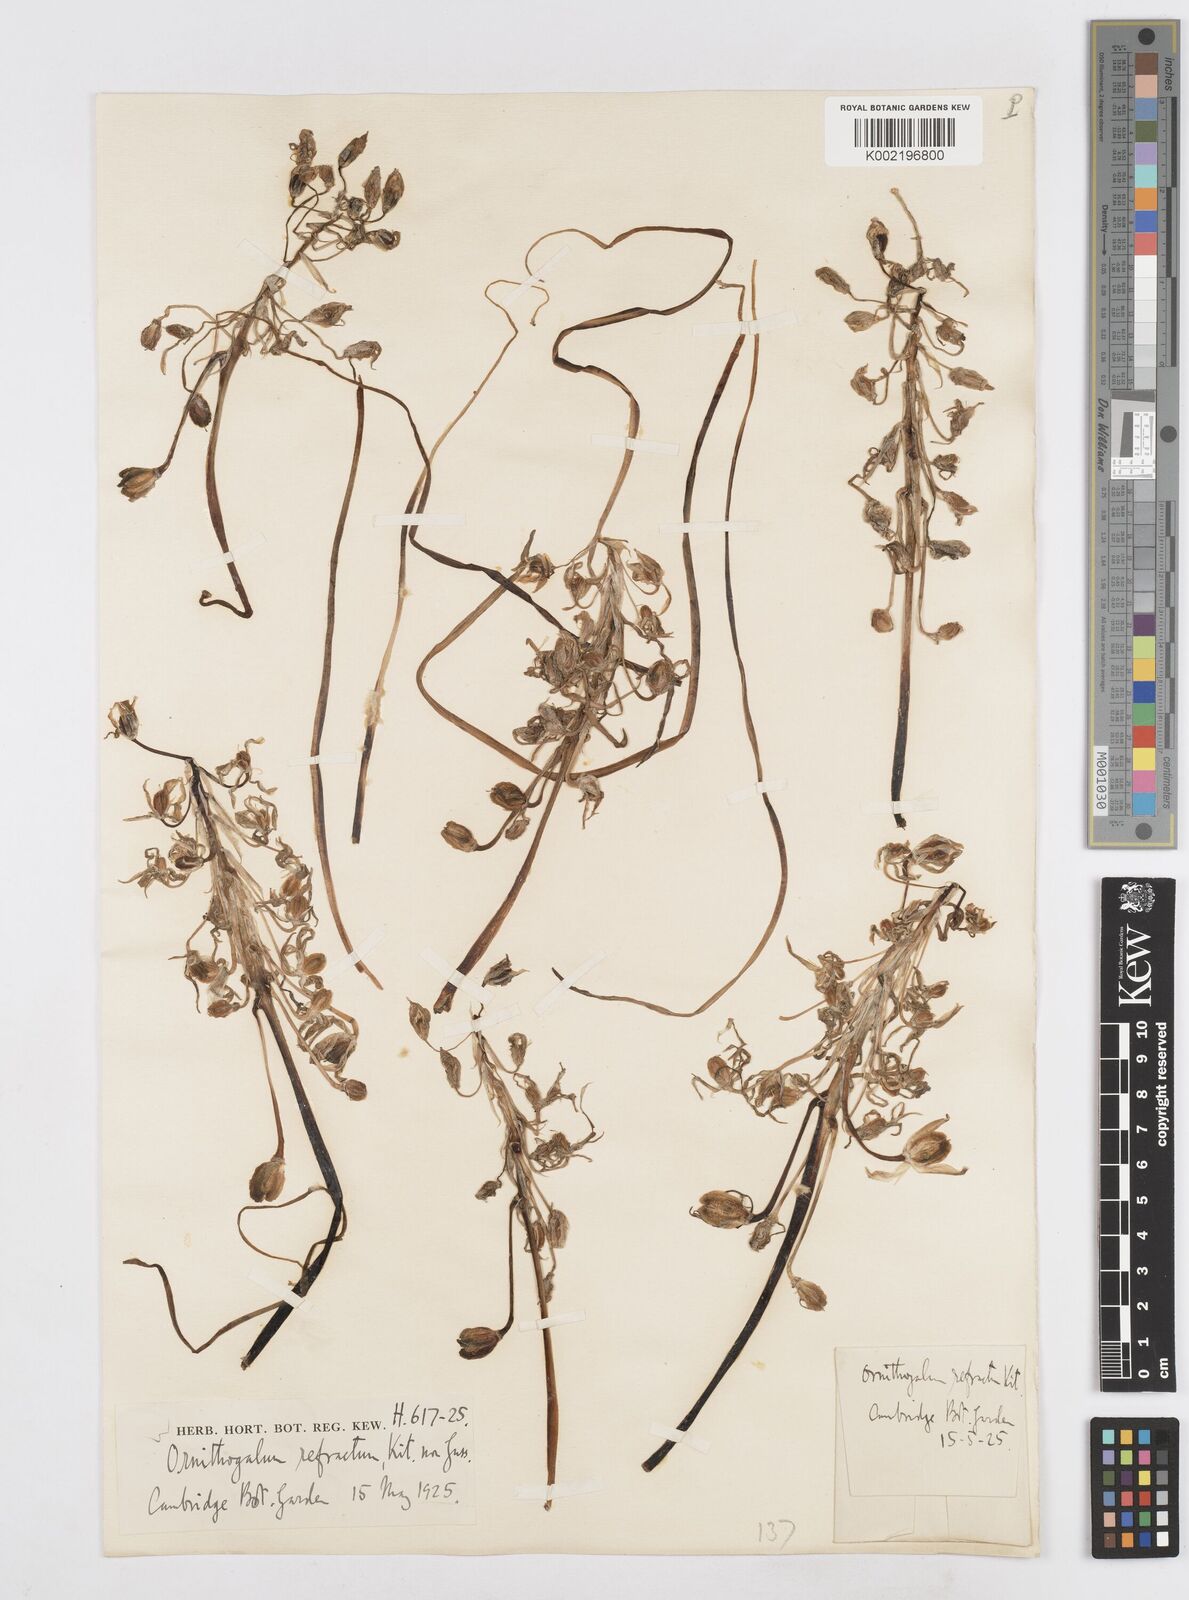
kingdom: Plantae
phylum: Tracheophyta
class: Liliopsida
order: Asparagales
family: Asparagaceae
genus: Ornithogalum
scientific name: Ornithogalum refractum
